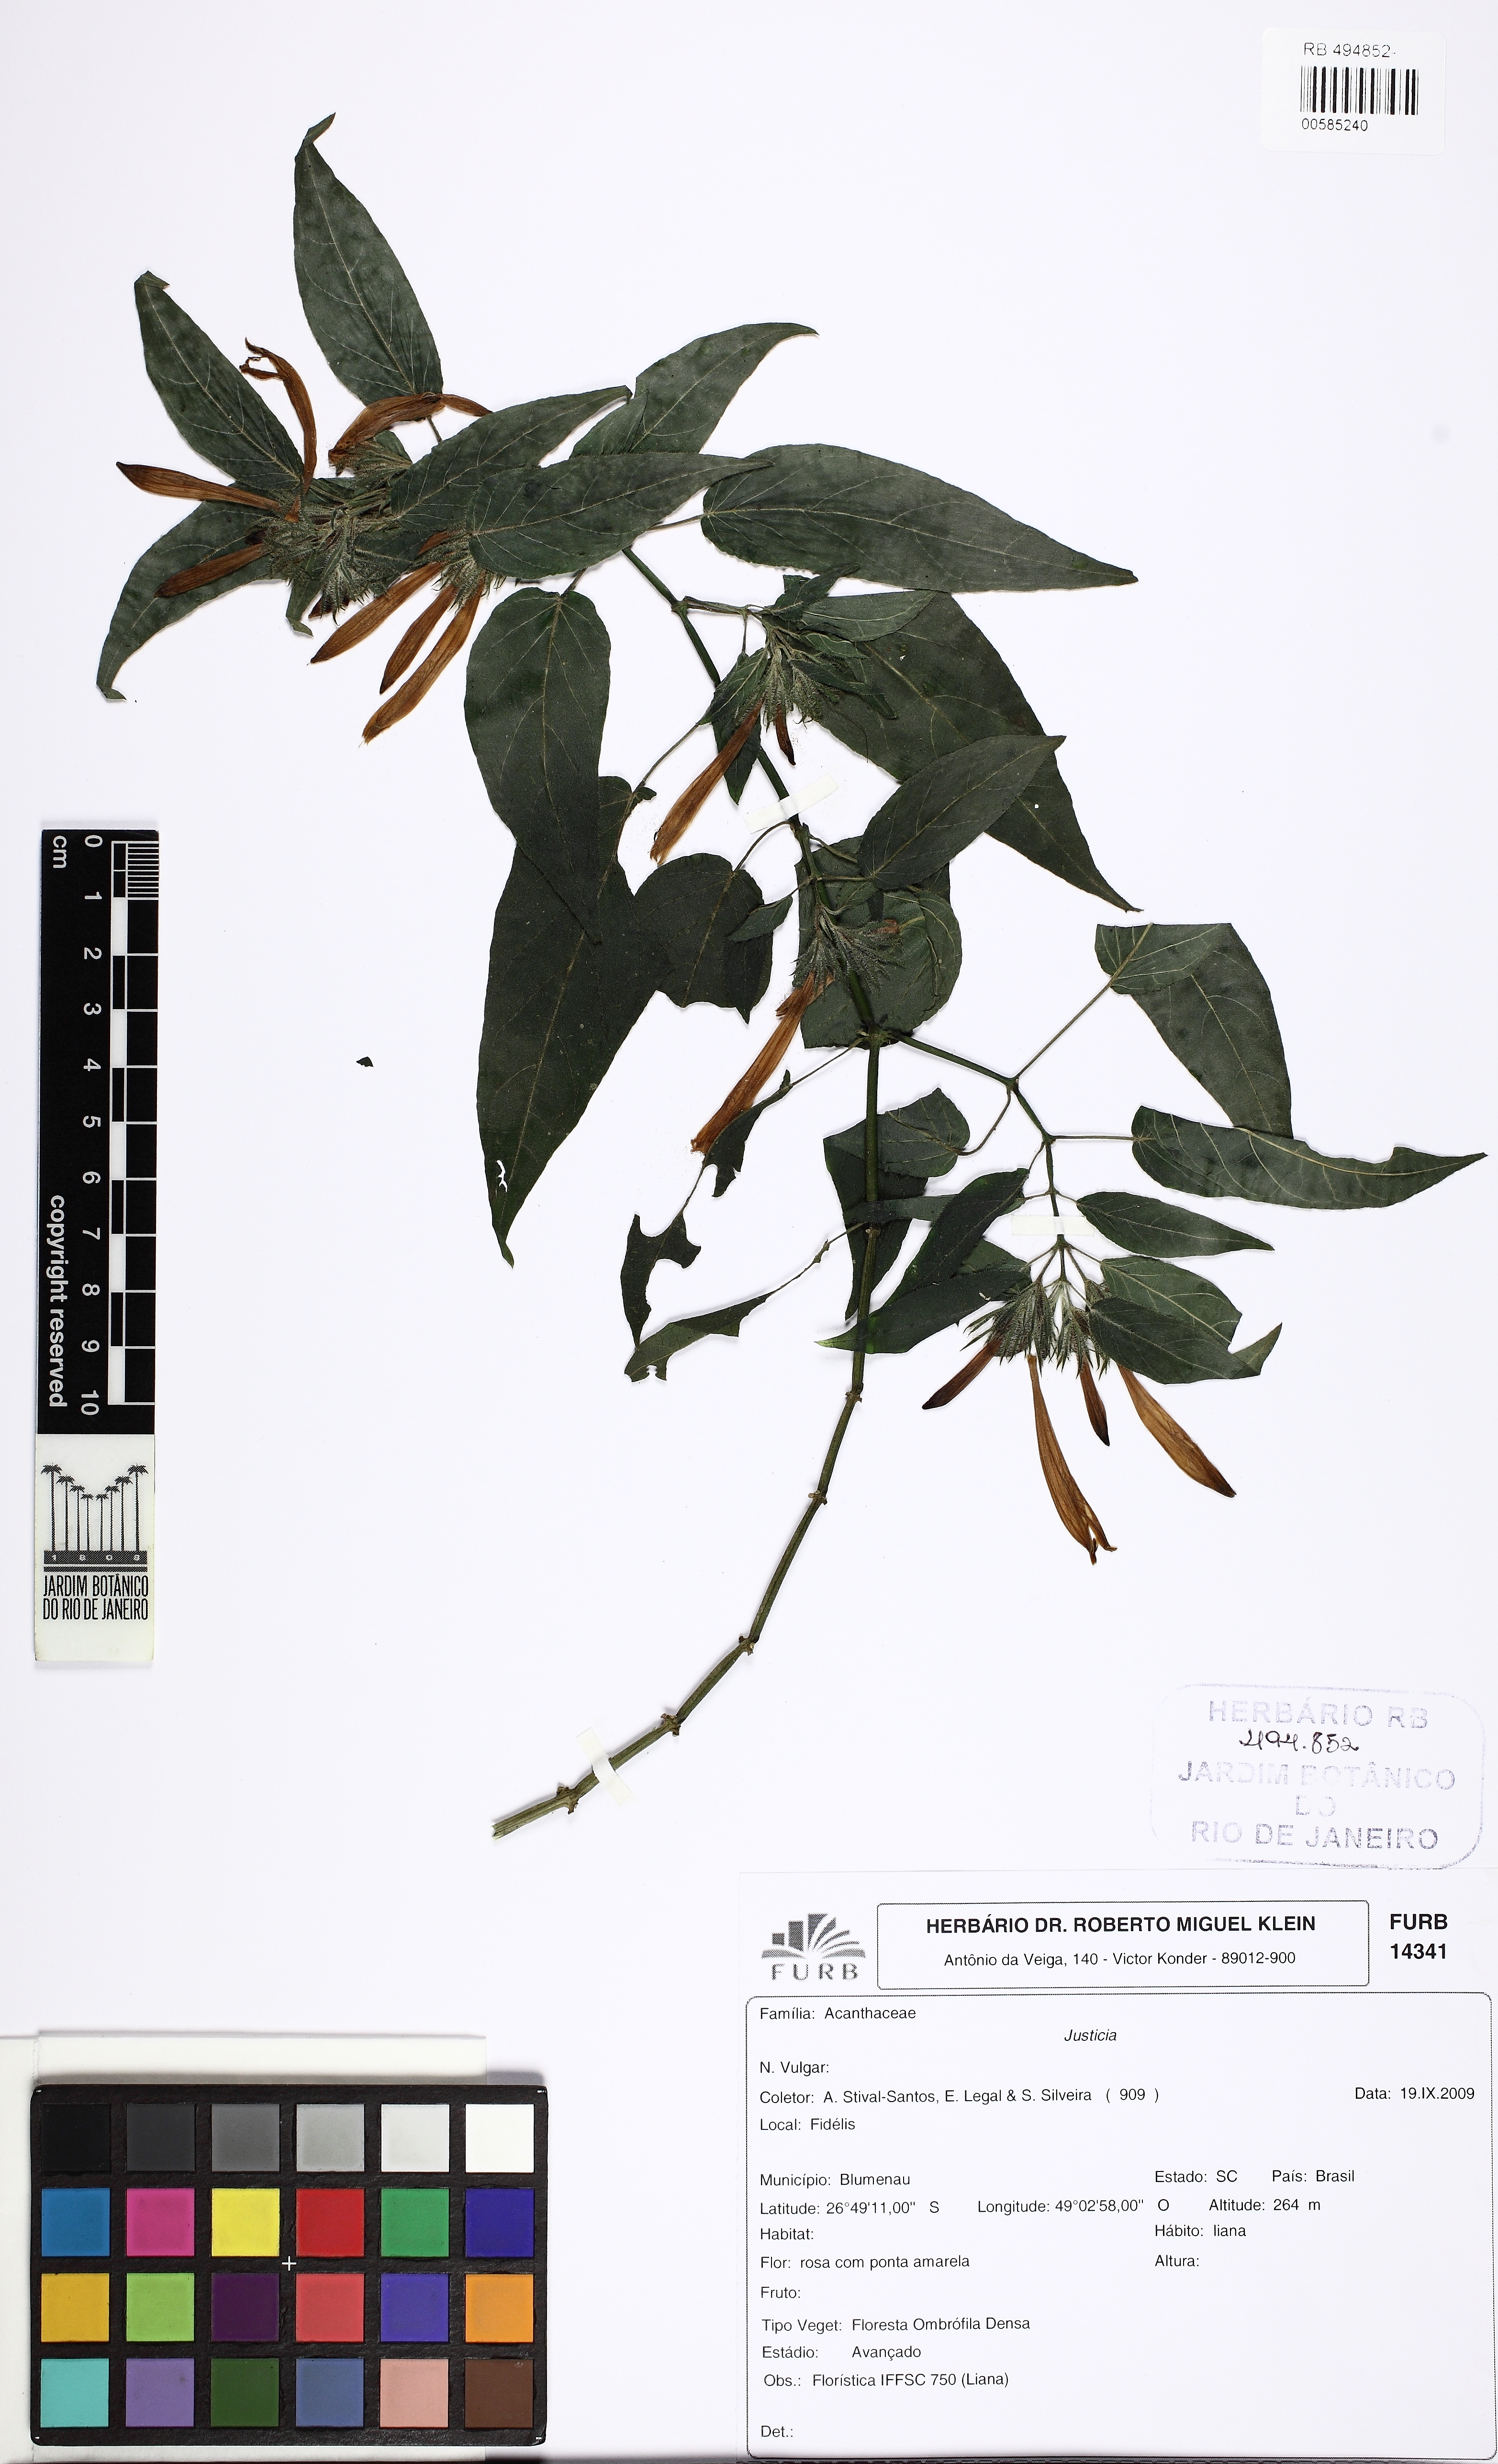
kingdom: Plantae
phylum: Tracheophyta
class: Magnoliopsida
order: Lamiales
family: Acanthaceae
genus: Justicia
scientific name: Justicia
